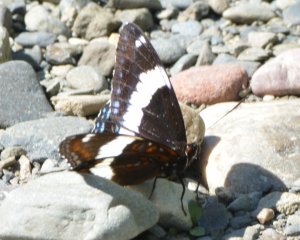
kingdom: Animalia
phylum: Arthropoda
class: Insecta
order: Lepidoptera
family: Nymphalidae
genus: Limenitis
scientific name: Limenitis arthemis
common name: Red-spotted Admiral
